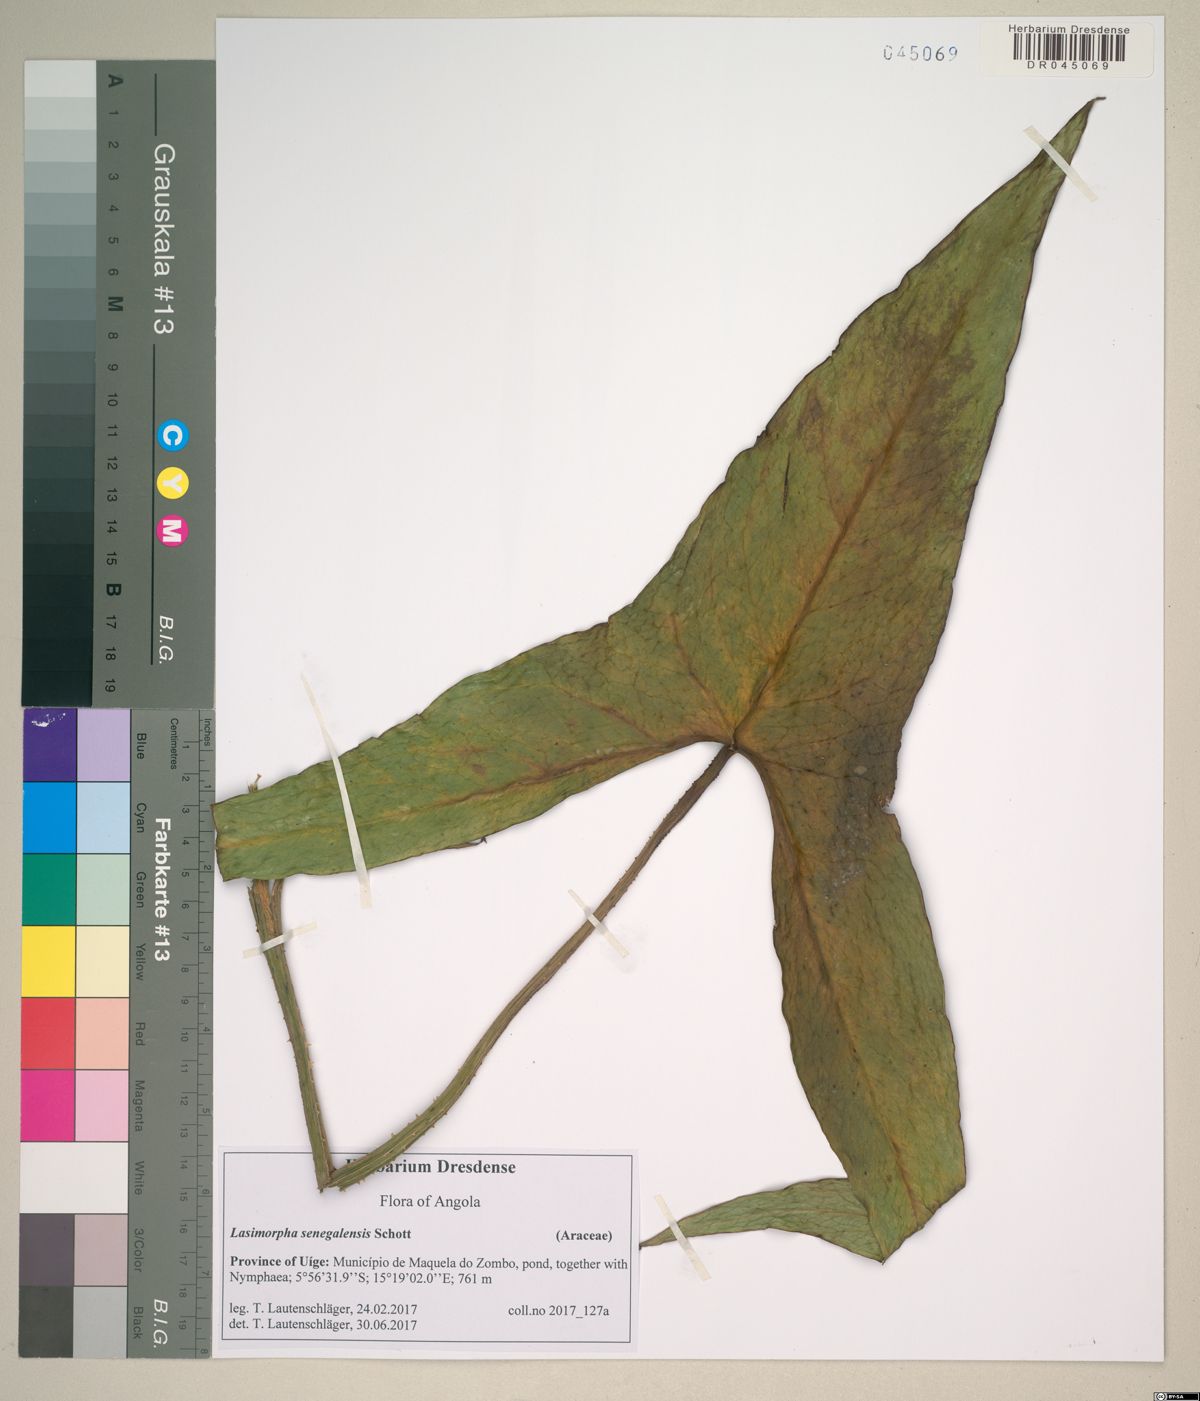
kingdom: Plantae
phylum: Tracheophyta
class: Liliopsida
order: Alismatales
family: Araceae
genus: Lasimorpha
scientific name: Lasimorpha senegalensis
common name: Swamp arum
